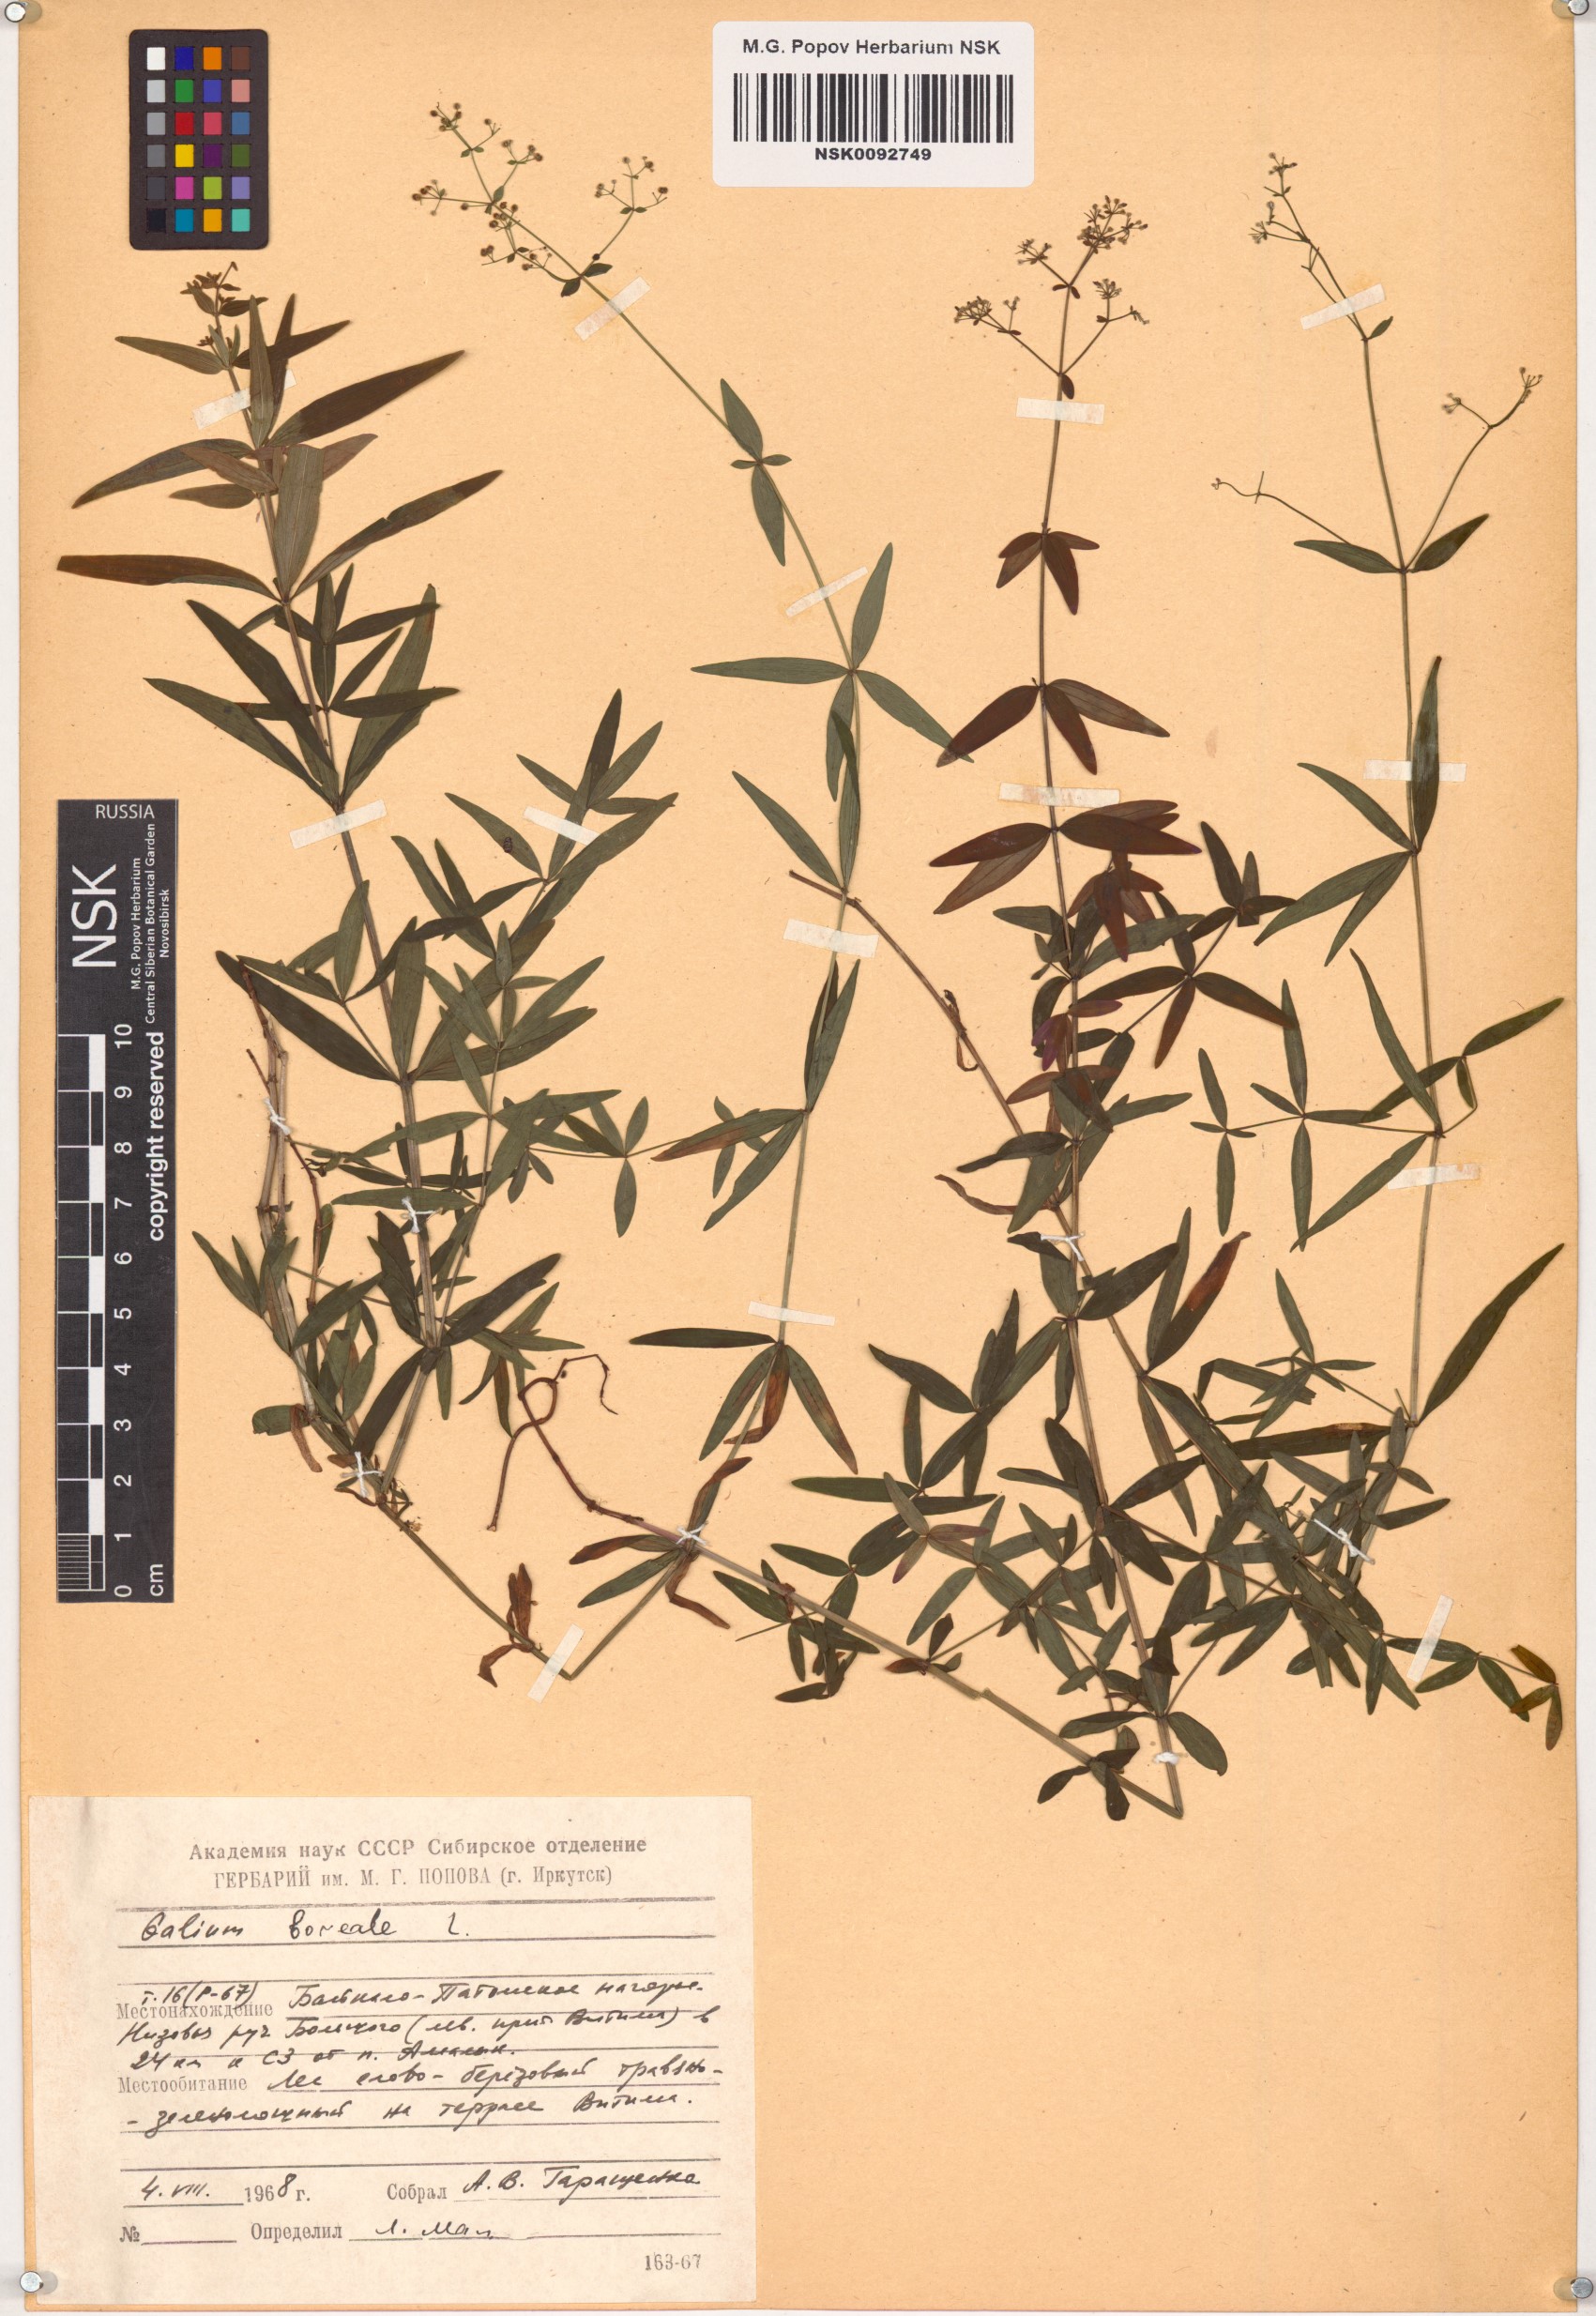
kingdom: Plantae
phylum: Tracheophyta
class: Magnoliopsida
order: Gentianales
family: Rubiaceae
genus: Galium
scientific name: Galium boreale
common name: Northern bedstraw
